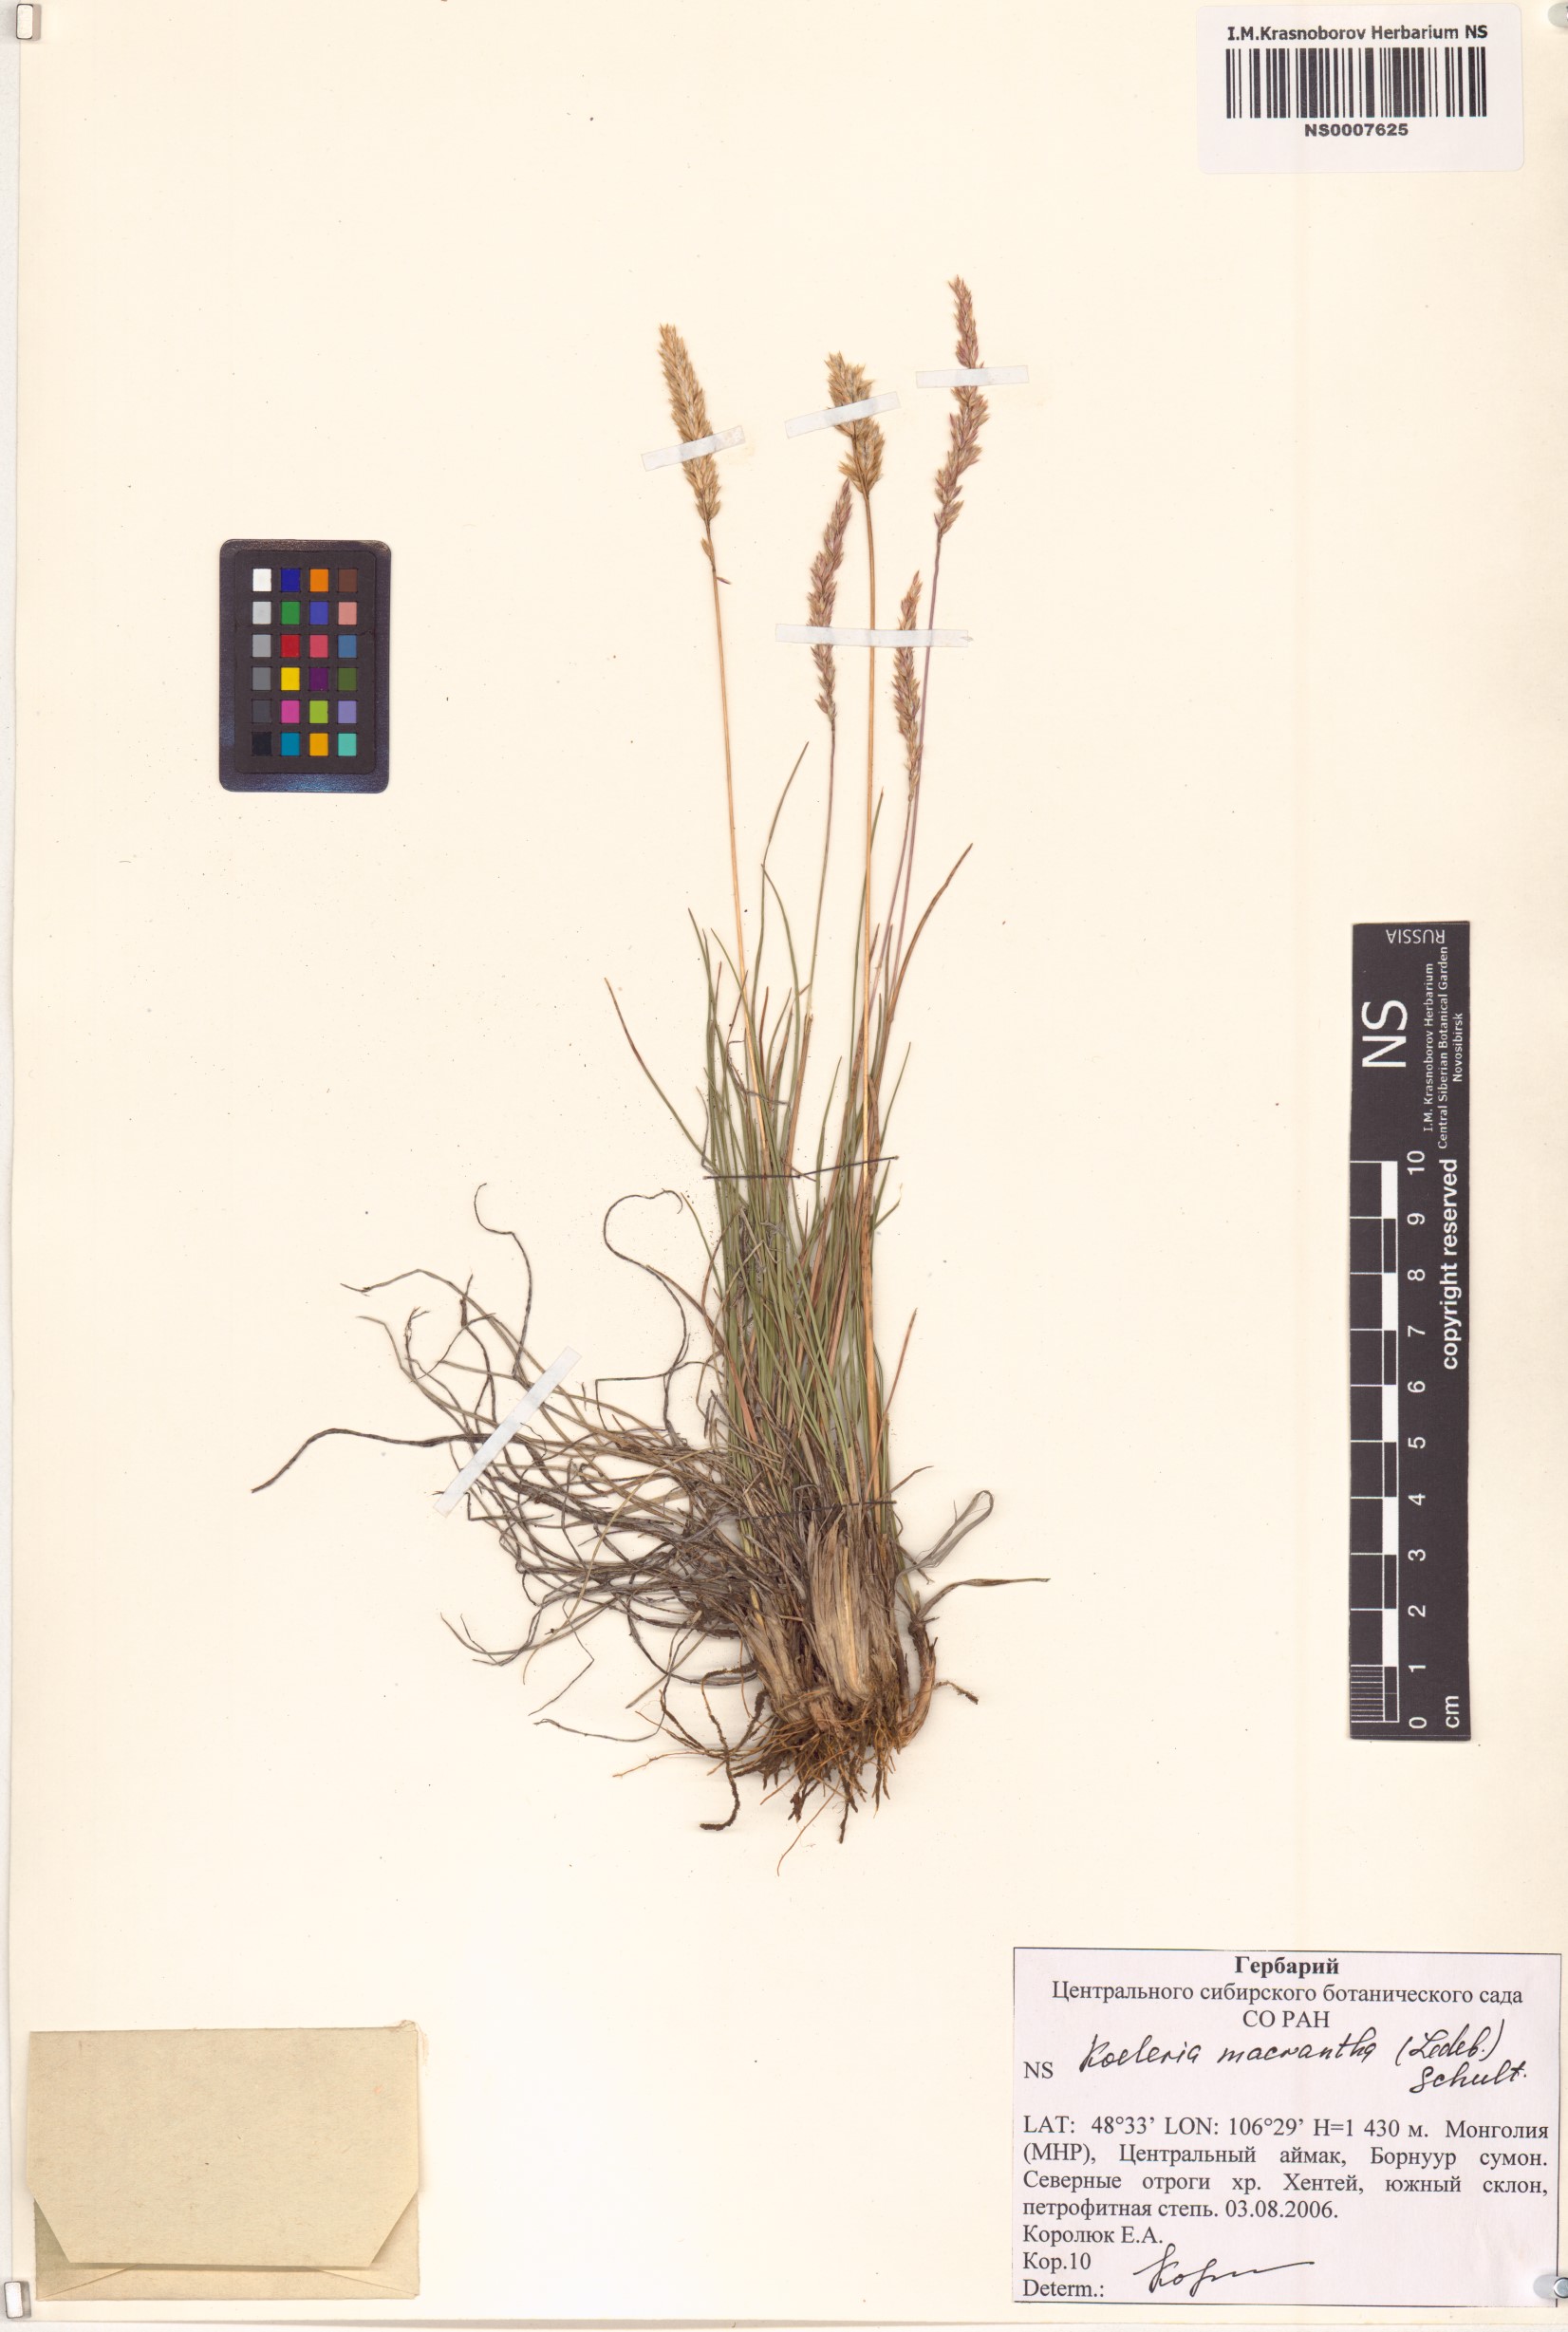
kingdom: Plantae
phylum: Tracheophyta
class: Liliopsida
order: Poales
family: Poaceae
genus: Koeleria
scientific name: Koeleria macrantha
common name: Crested hair-grass
